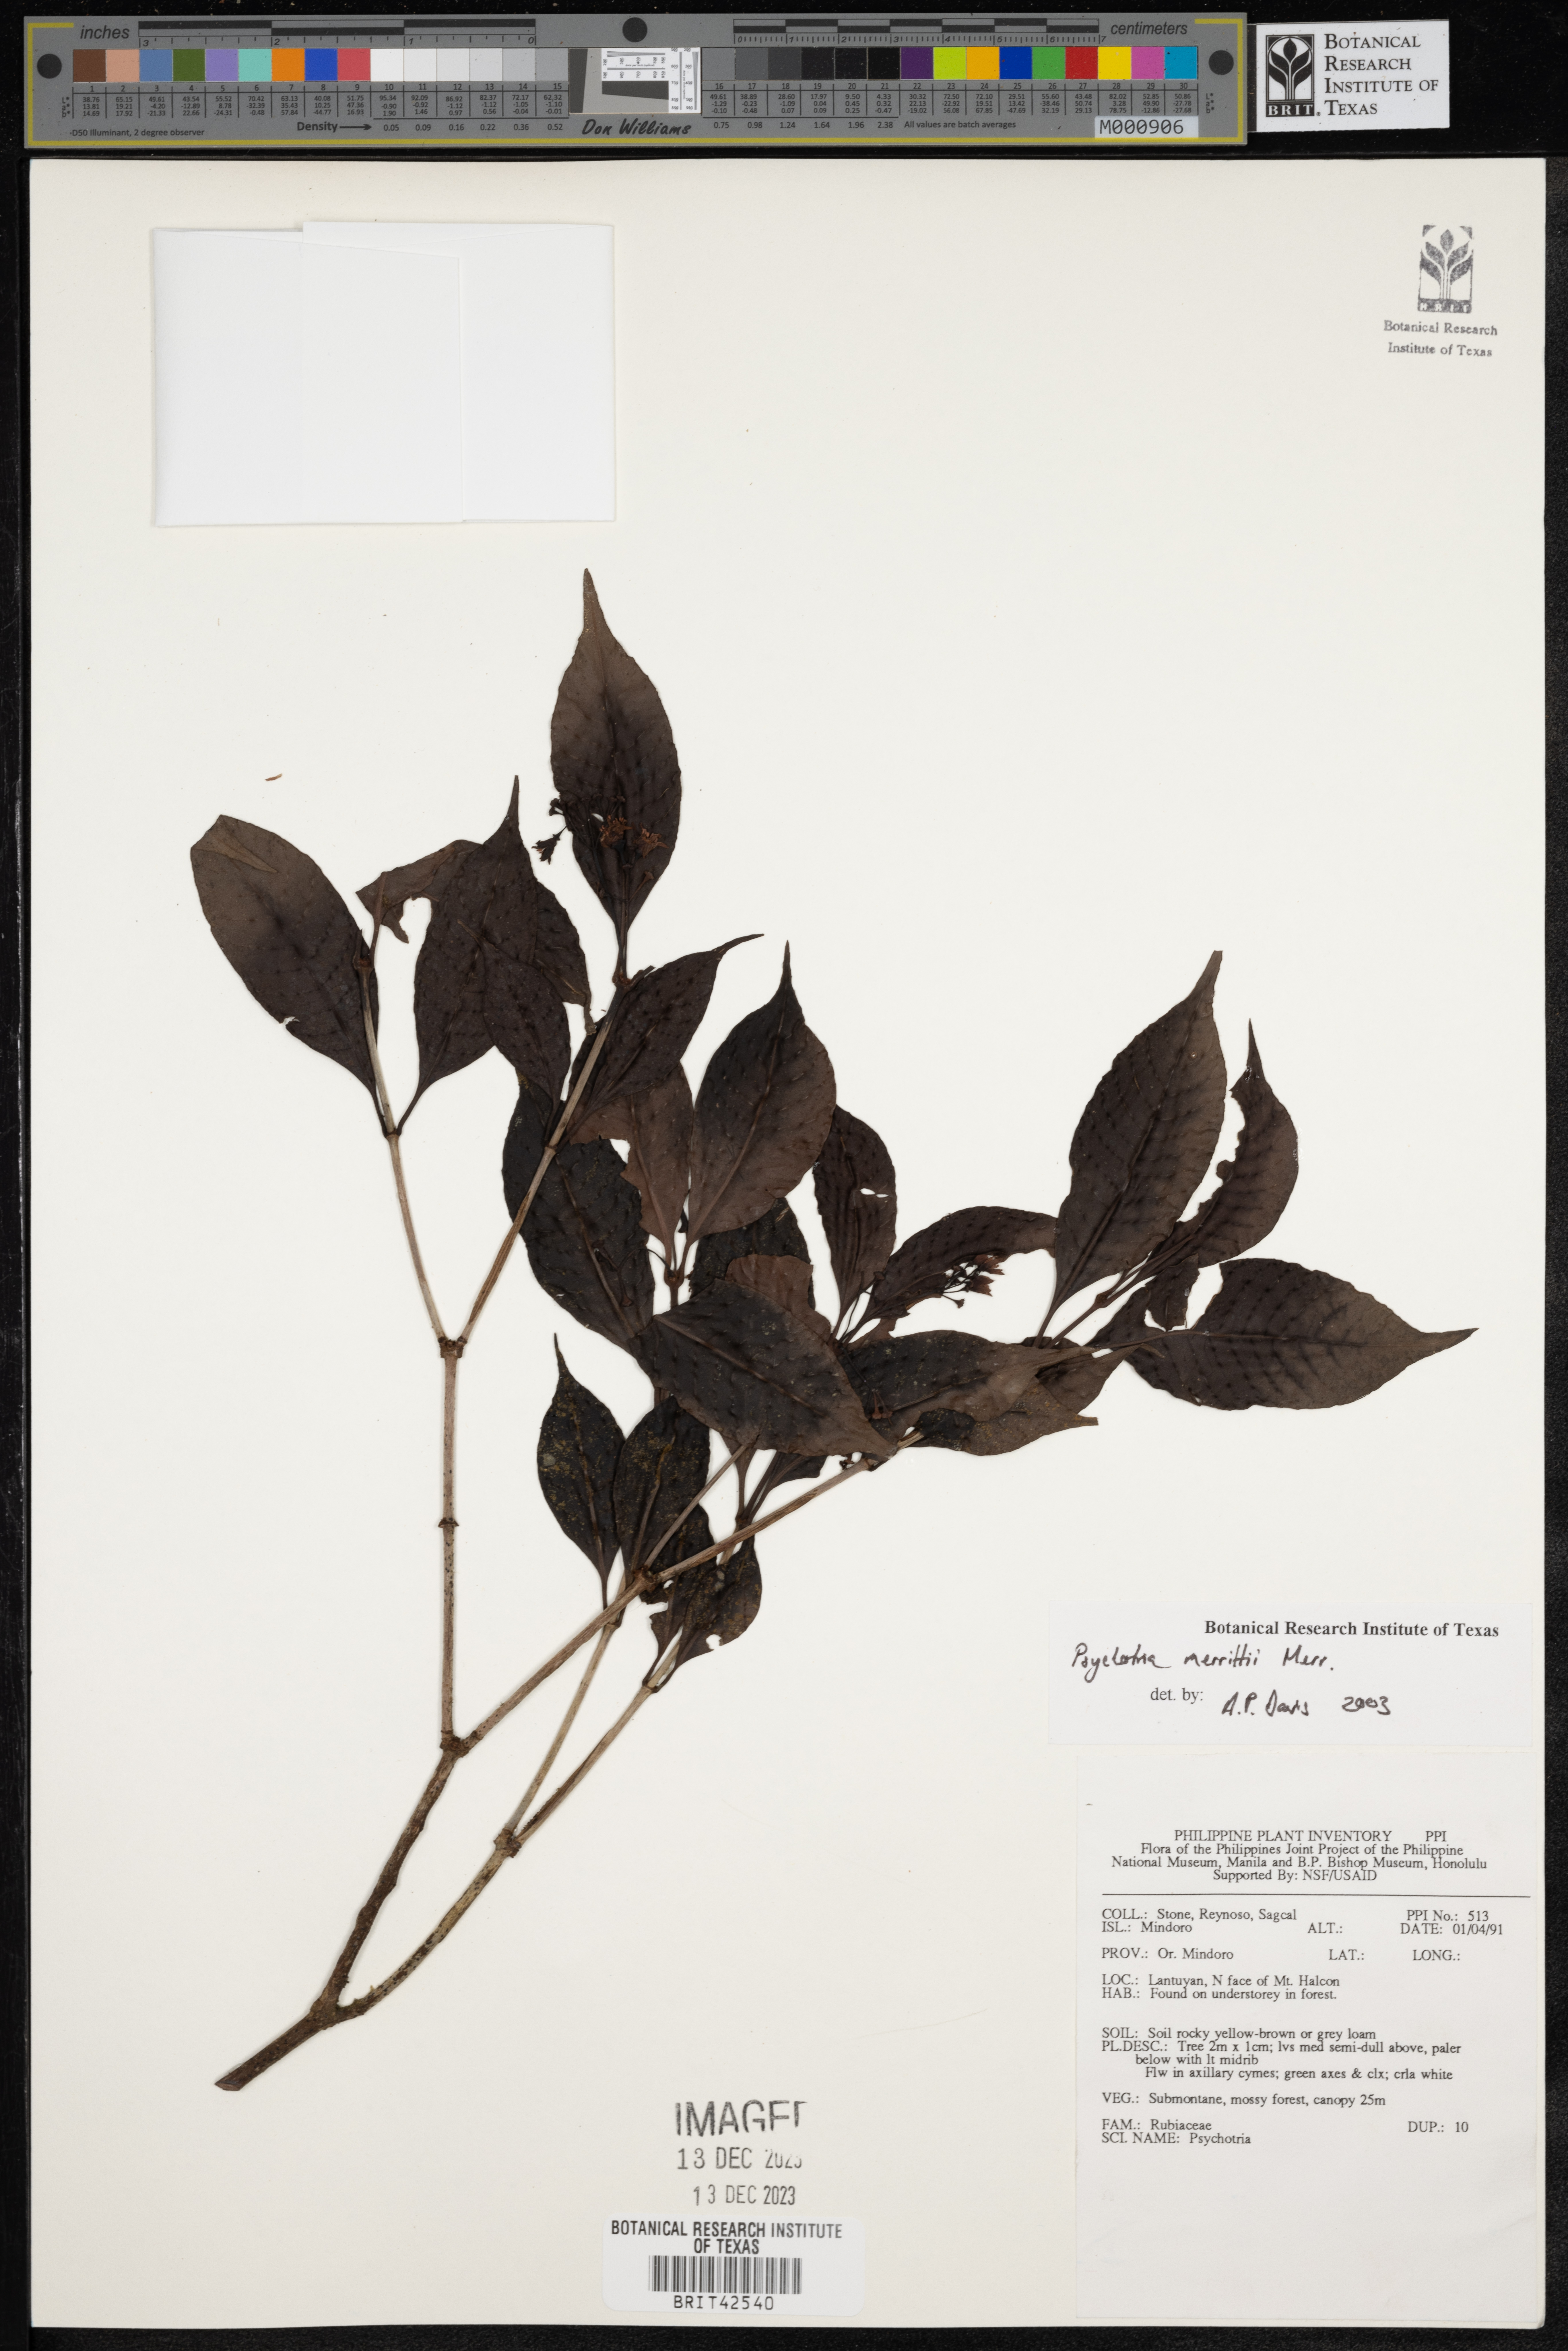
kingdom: Plantae
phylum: Tracheophyta
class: Magnoliopsida
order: Gentianales
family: Rubiaceae
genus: Psychotria
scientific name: Psychotria merrittii
